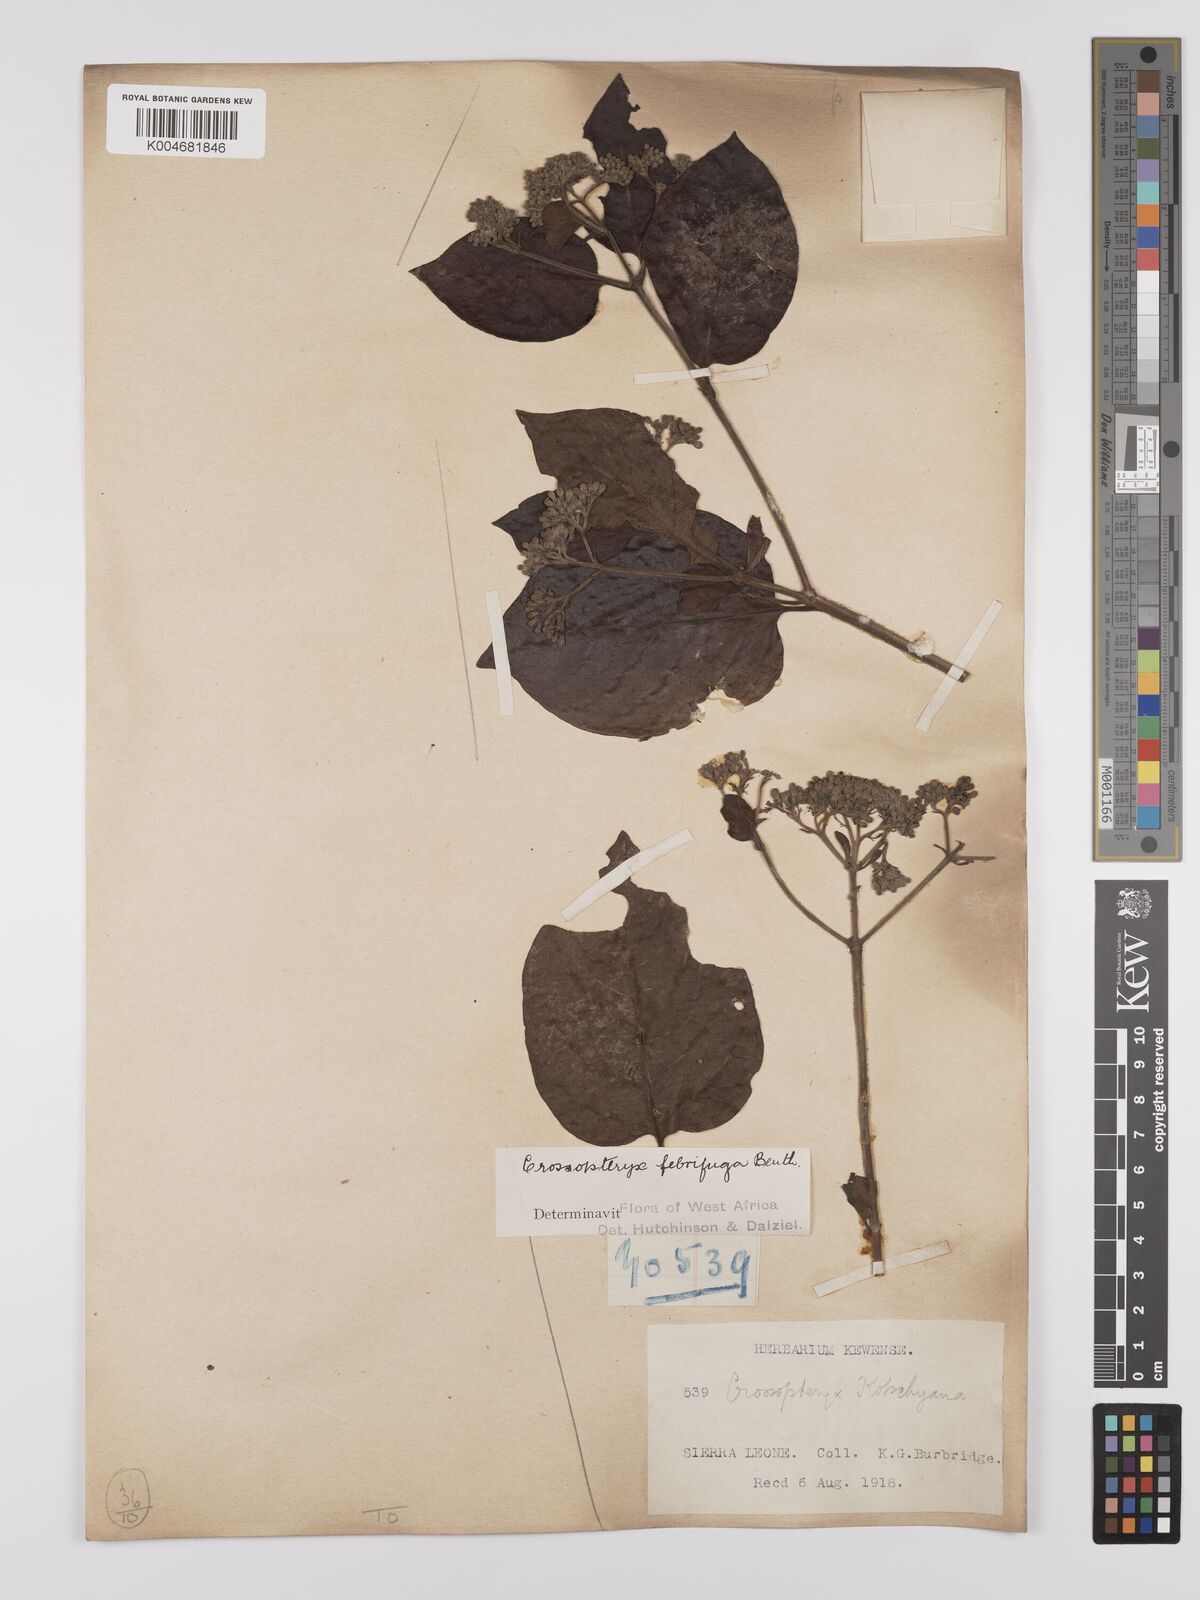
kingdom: Plantae
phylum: Tracheophyta
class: Magnoliopsida
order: Gentianales
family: Rubiaceae
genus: Crossopteryx
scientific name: Crossopteryx febrifuga
